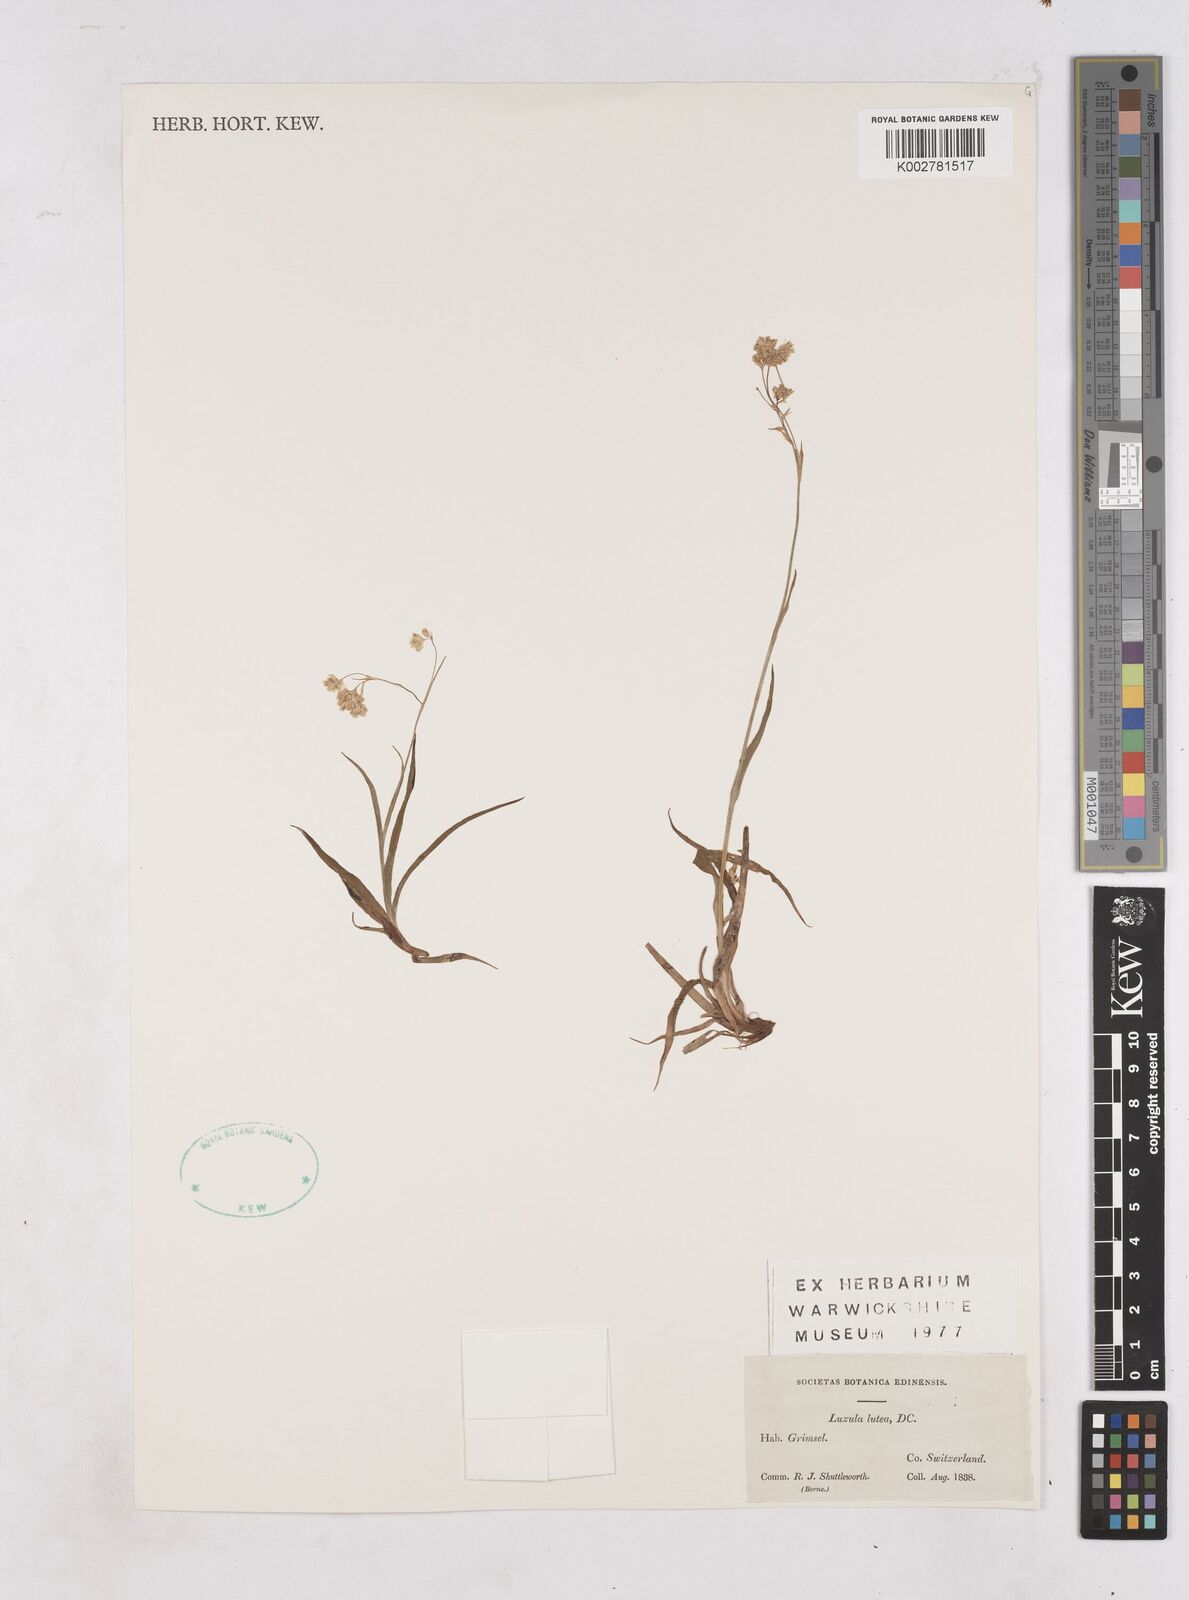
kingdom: Plantae
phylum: Tracheophyta
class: Liliopsida
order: Poales
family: Juncaceae
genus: Luzula
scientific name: Luzula lutea
